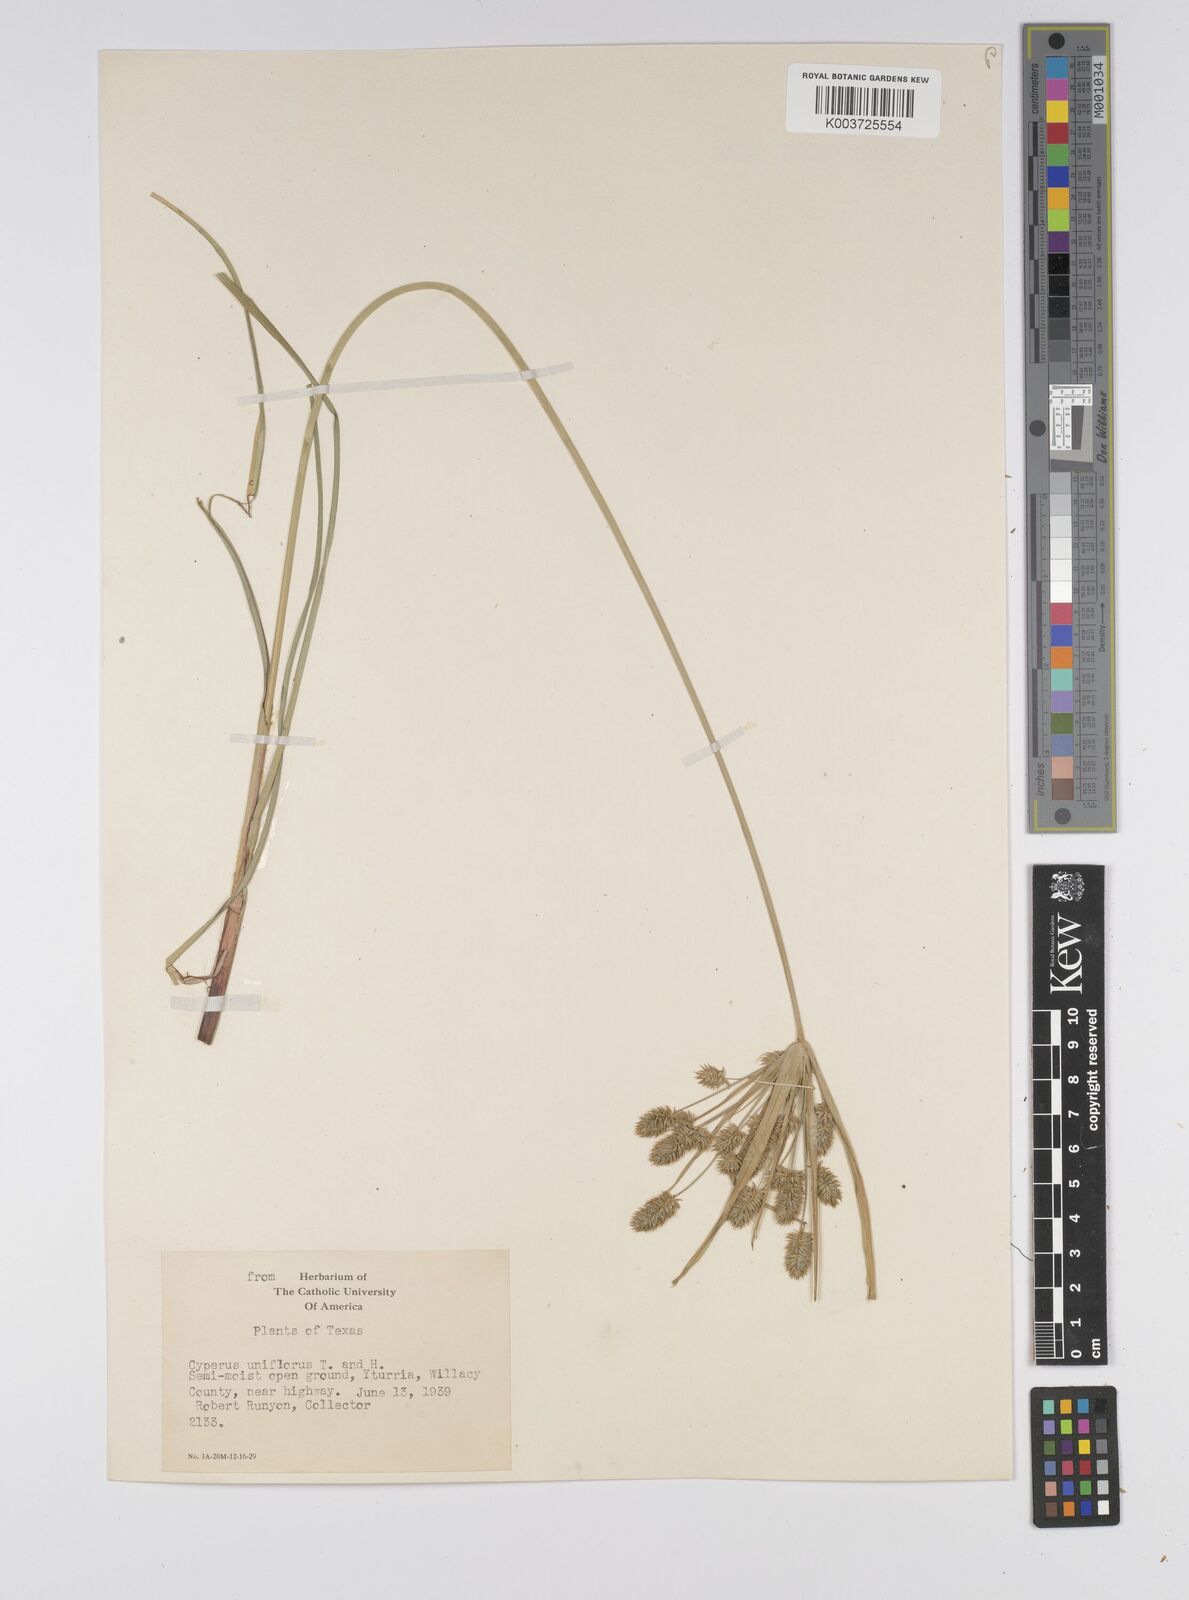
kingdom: Plantae
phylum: Tracheophyta
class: Liliopsida
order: Poales
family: Cyperaceae
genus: Cyperus
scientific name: Cyperus retroflexus
